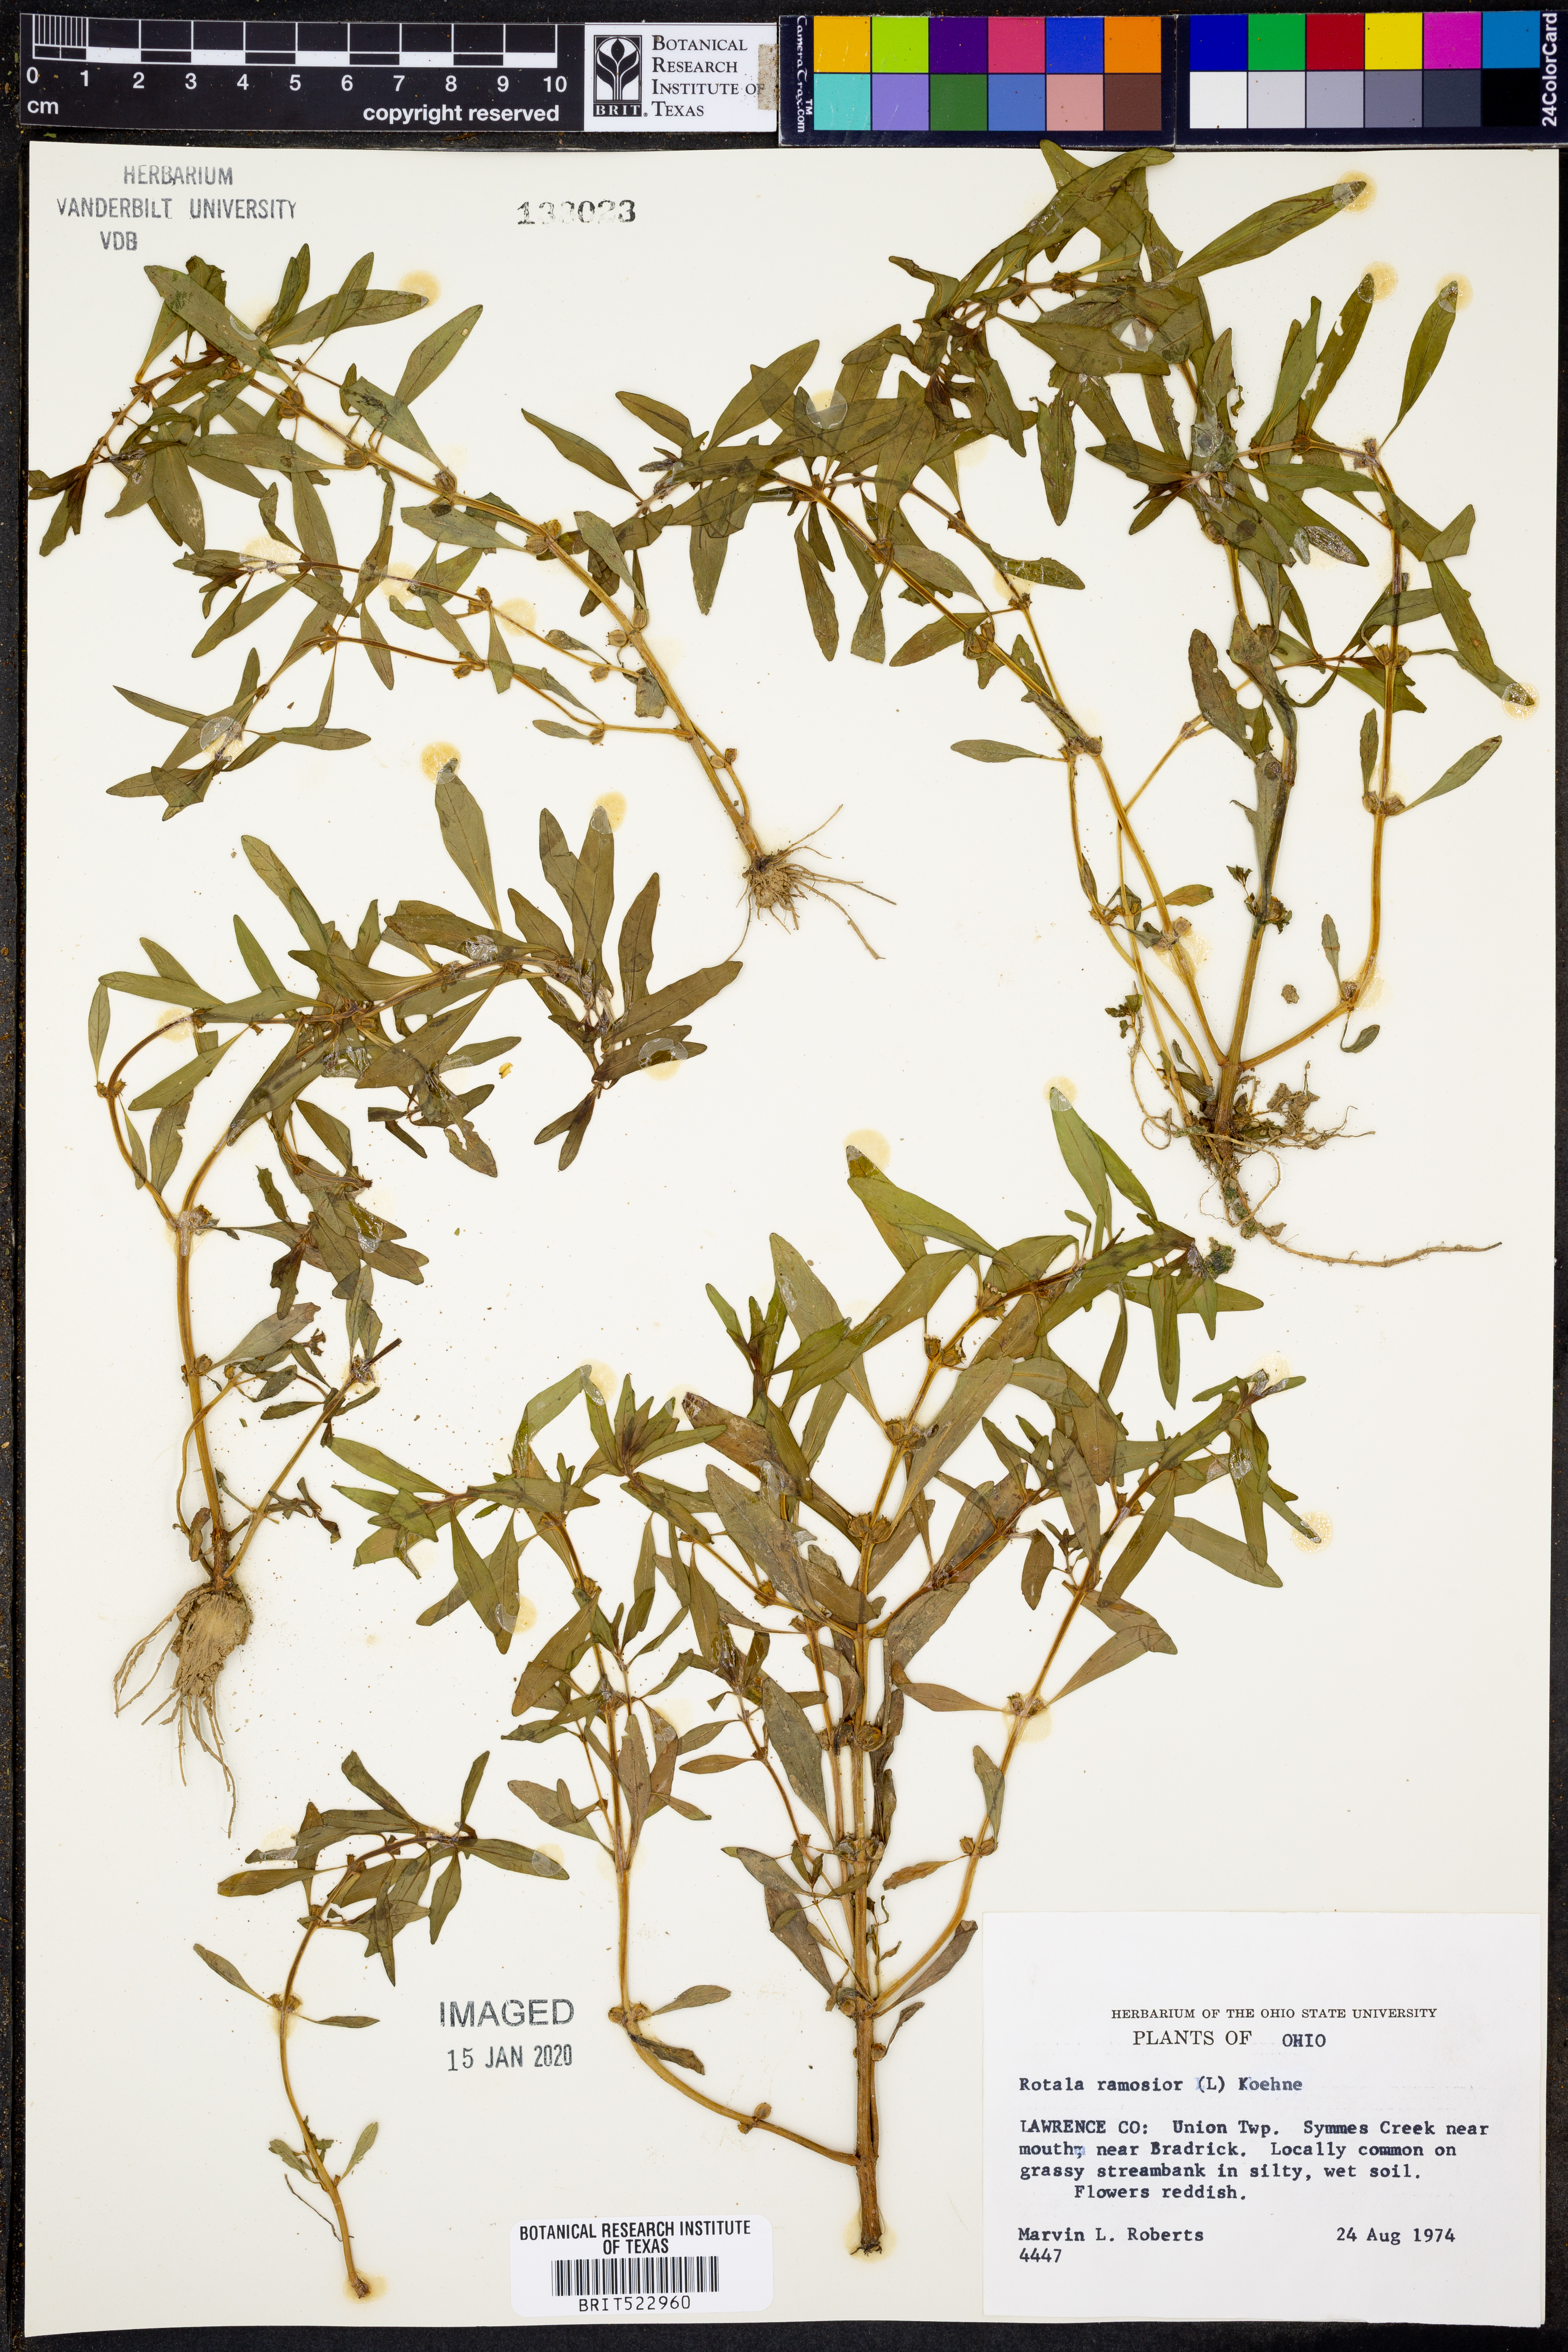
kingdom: Plantae
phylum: Tracheophyta
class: Magnoliopsida
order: Myrtales
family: Lythraceae
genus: Rotala
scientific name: Rotala ramosior
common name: Lowland rotala
